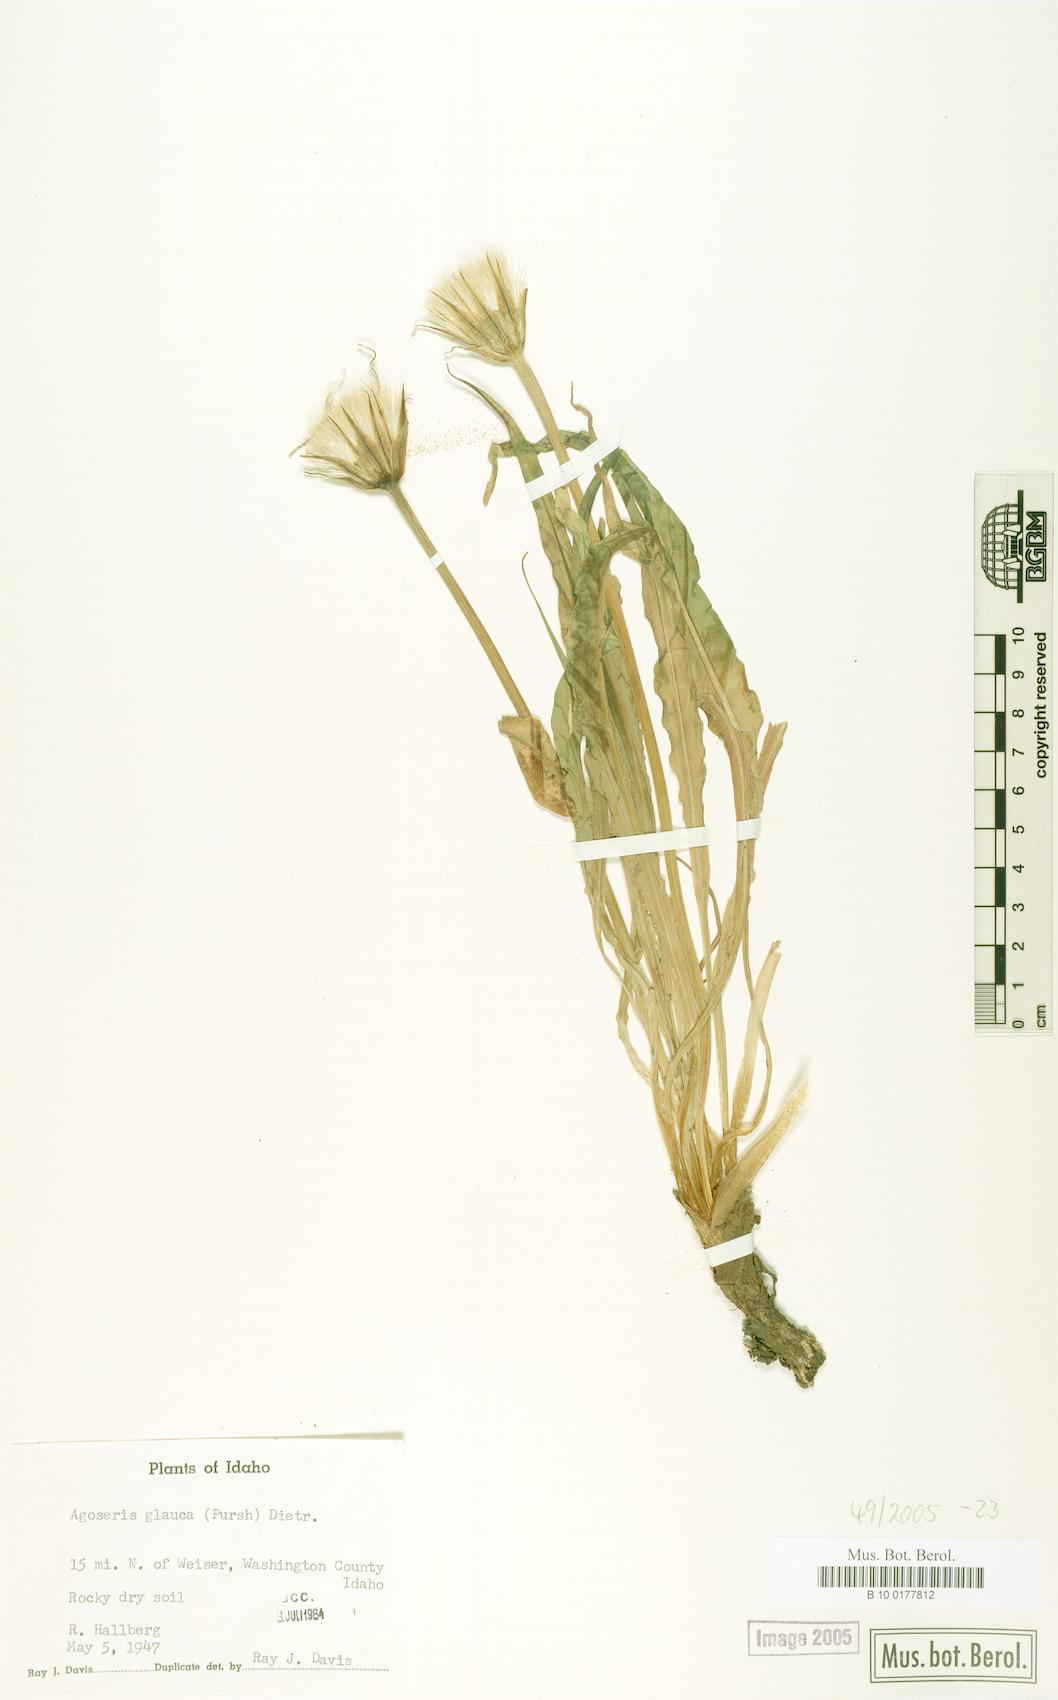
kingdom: Plantae
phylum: Tracheophyta
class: Magnoliopsida
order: Asterales
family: Asteraceae
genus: Agoseris
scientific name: Agoseris glauca
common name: Prairie agoseris
